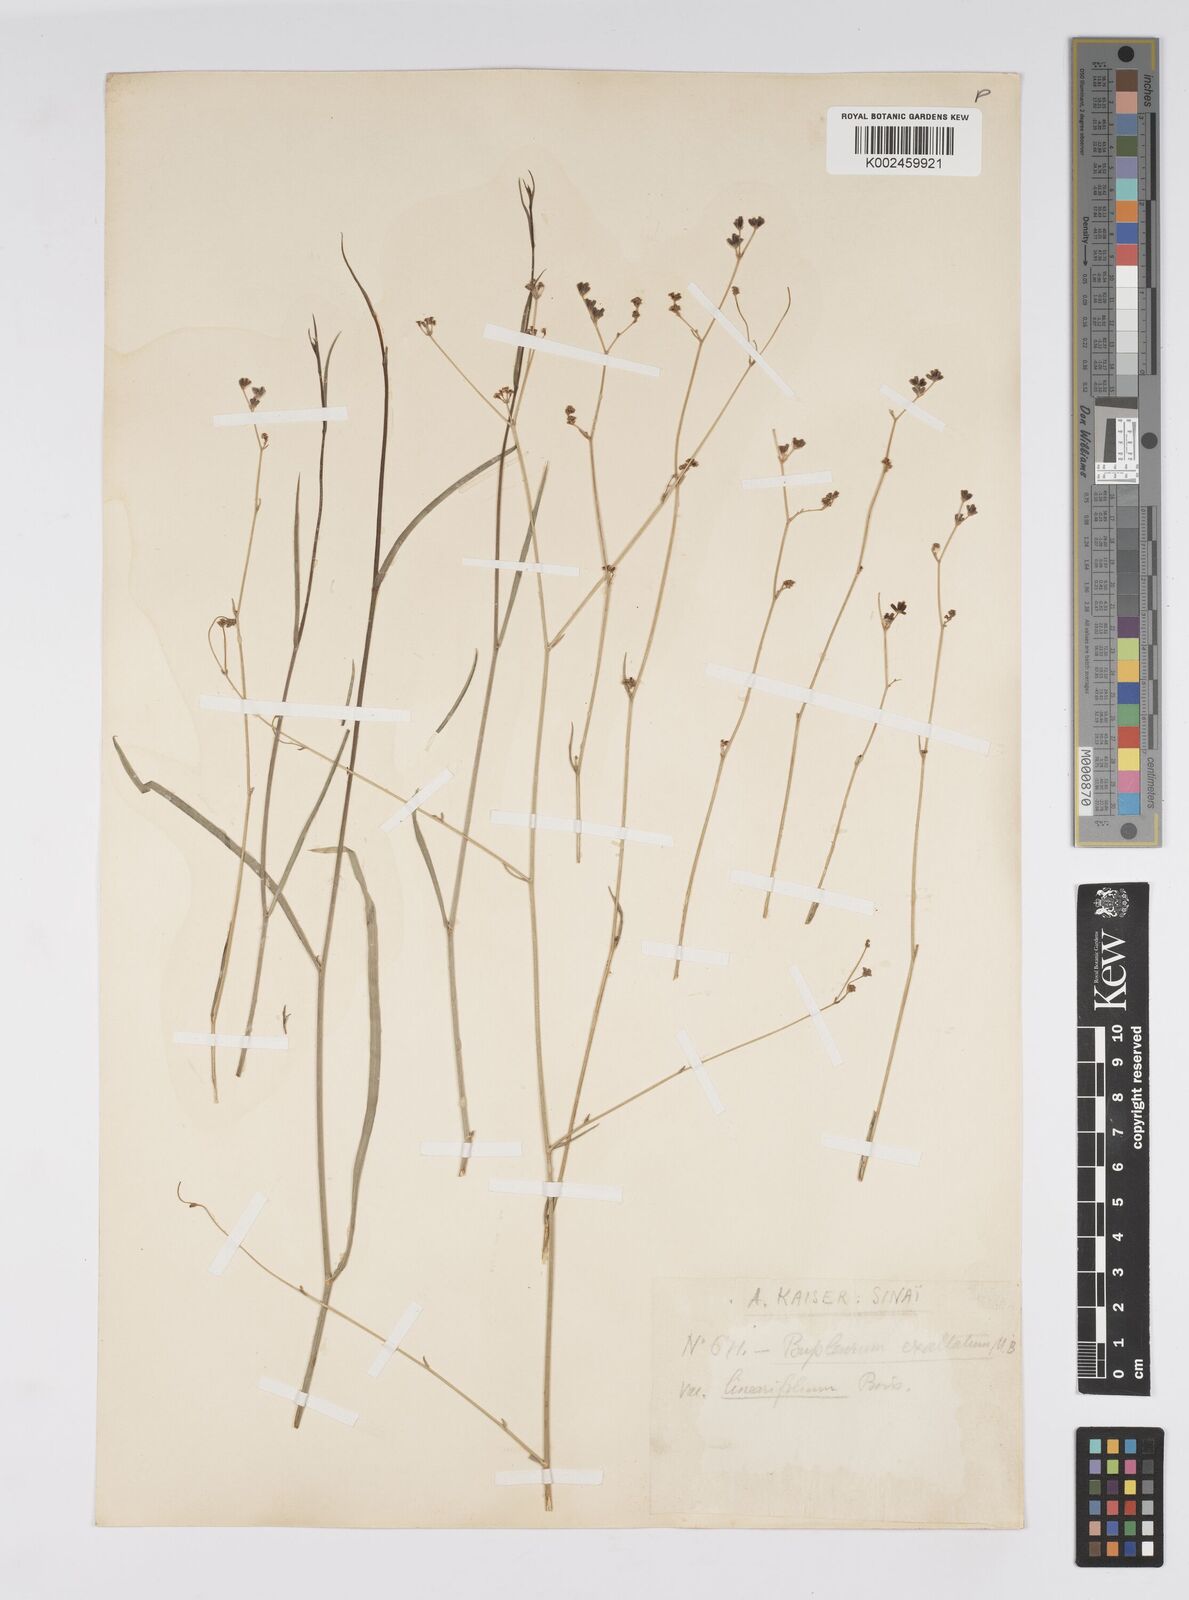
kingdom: Plantae
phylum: Tracheophyta
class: Magnoliopsida
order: Apiales
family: Apiaceae
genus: Bupleurum
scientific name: Bupleurum falcatum
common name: Sickle-leaved hare's-ear
